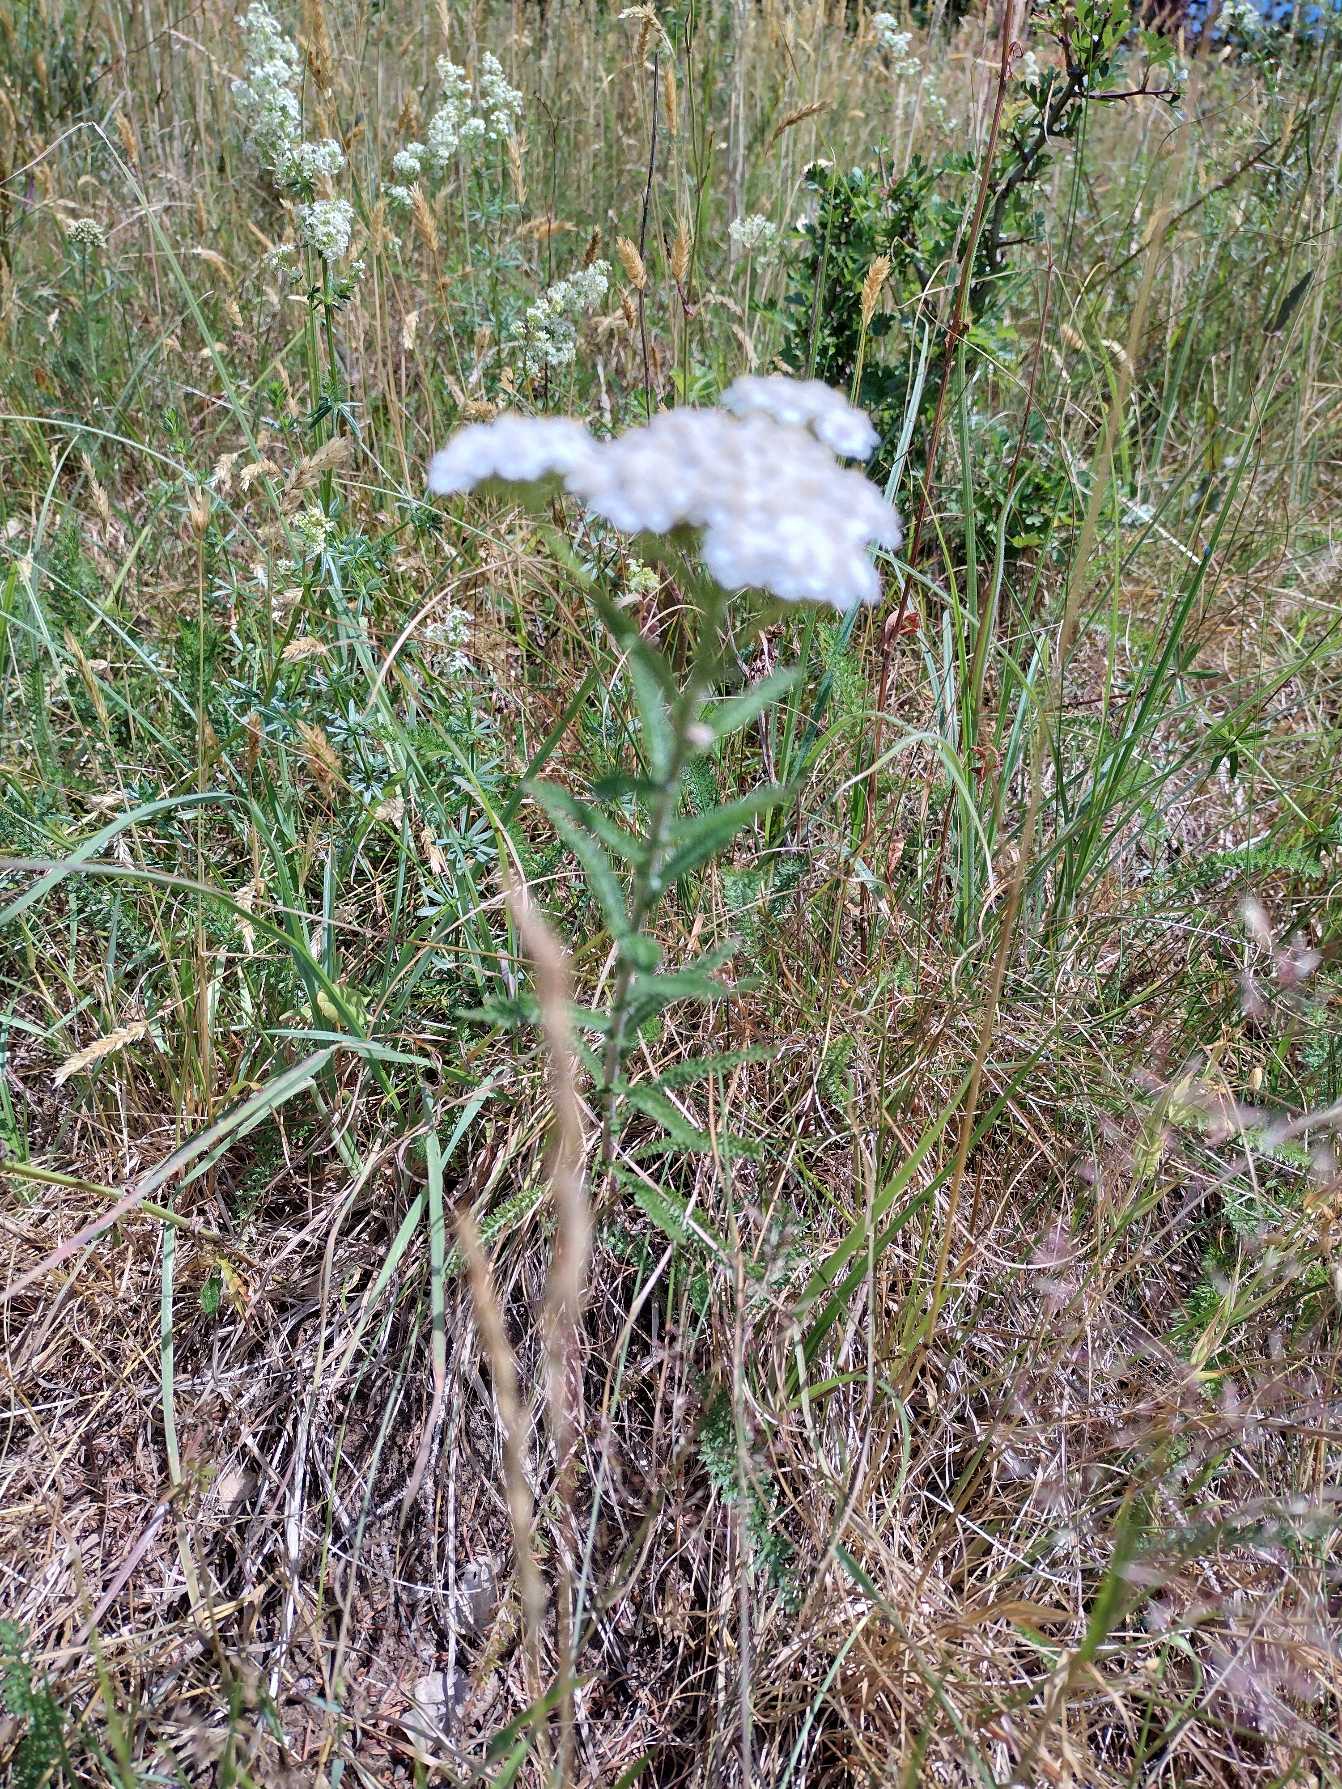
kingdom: Plantae
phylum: Tracheophyta
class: Magnoliopsida
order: Asterales
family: Asteraceae
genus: Achillea
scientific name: Achillea millefolium
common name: Almindelig røllike
